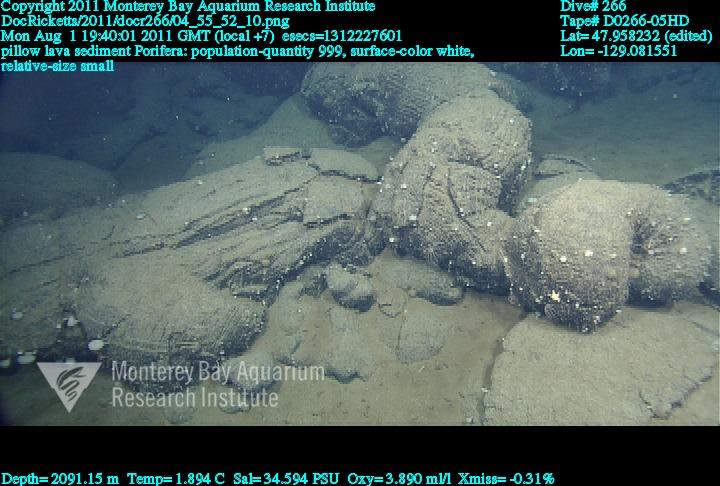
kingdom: Animalia
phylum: Porifera
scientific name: Porifera
